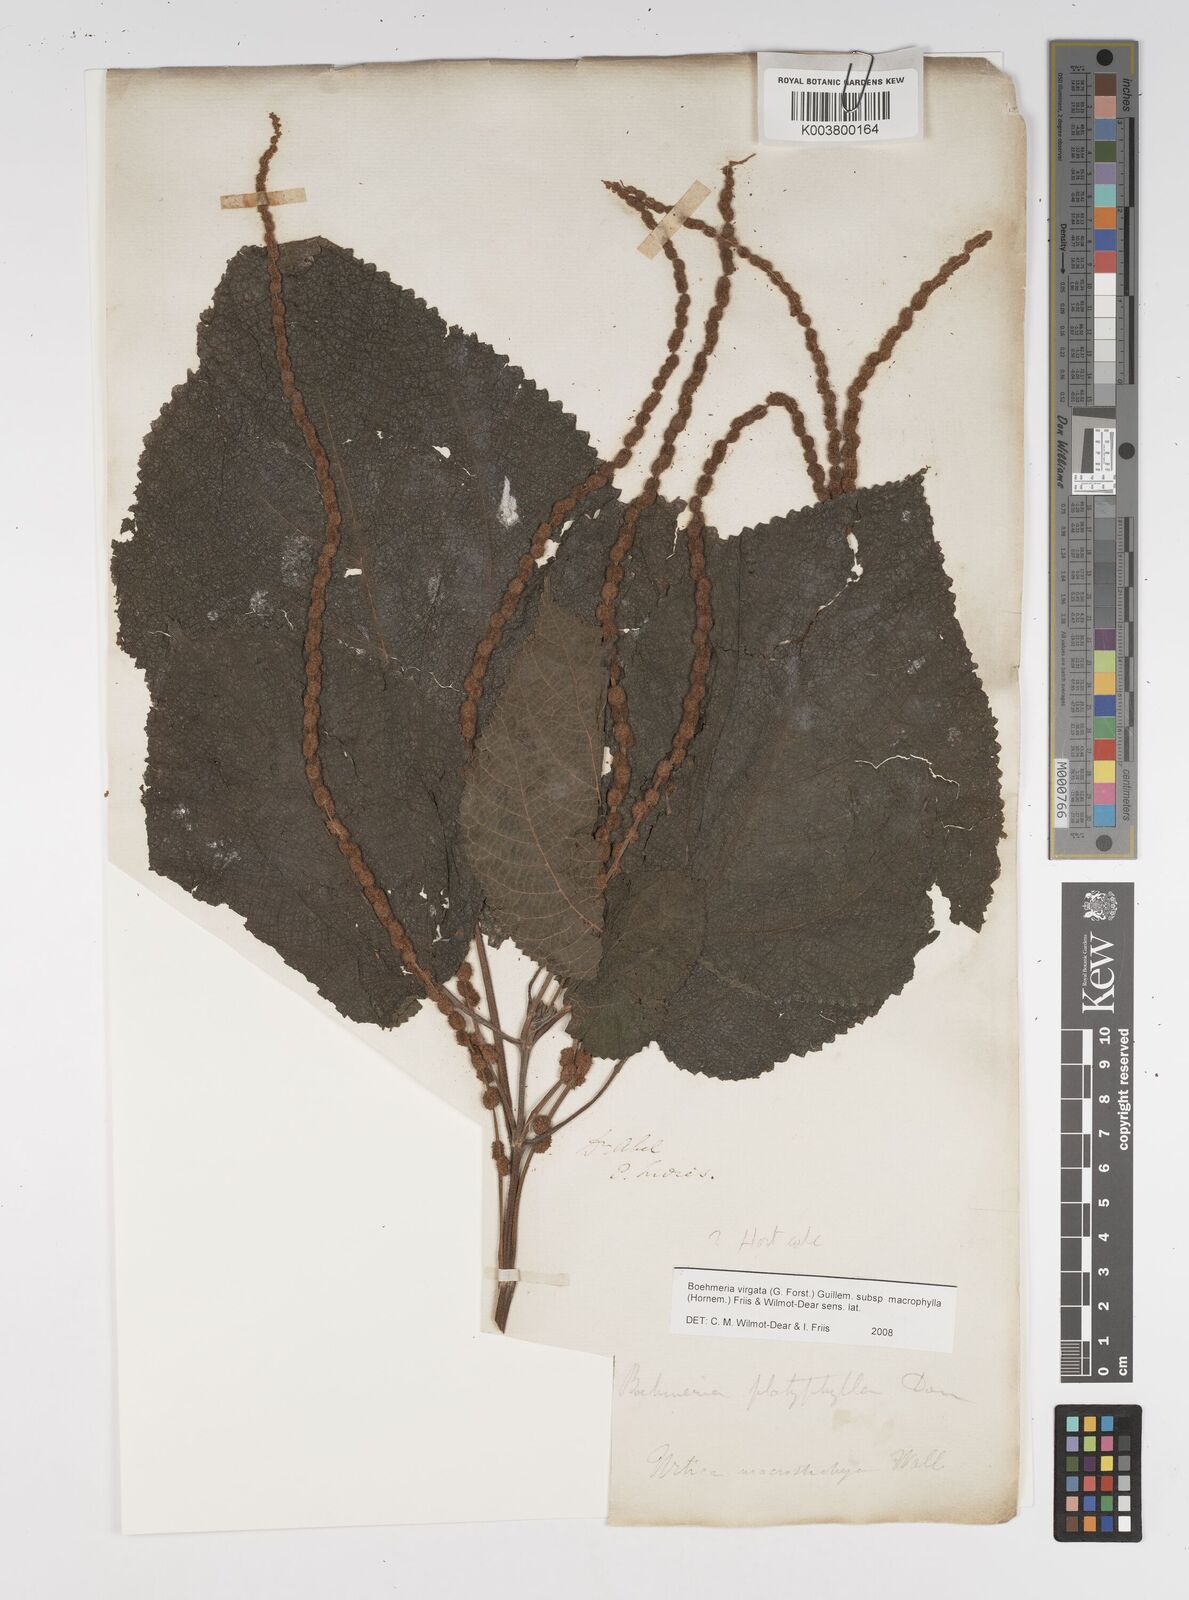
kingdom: Plantae
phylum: Tracheophyta
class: Magnoliopsida
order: Rosales
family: Urticaceae
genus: Boehmeria
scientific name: Boehmeria virgata
